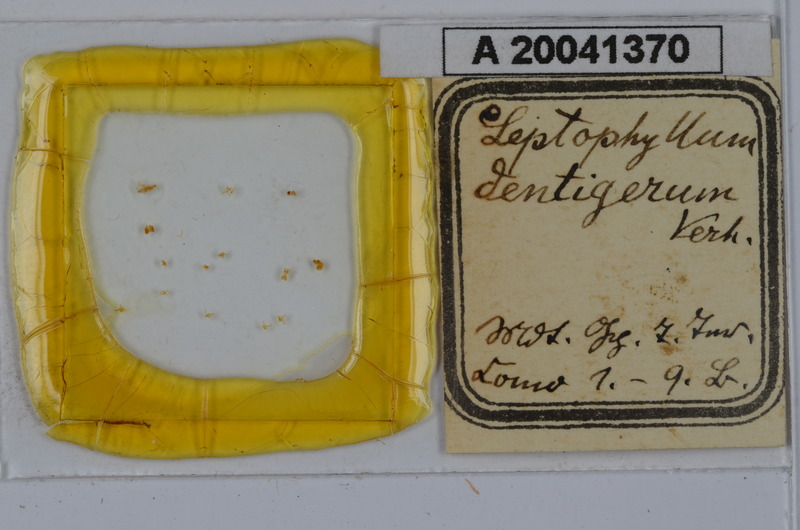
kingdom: Animalia
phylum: Arthropoda
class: Diplopoda
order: Julida
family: Julidae
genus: Enantiulus
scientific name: Enantiulus dentigerus
